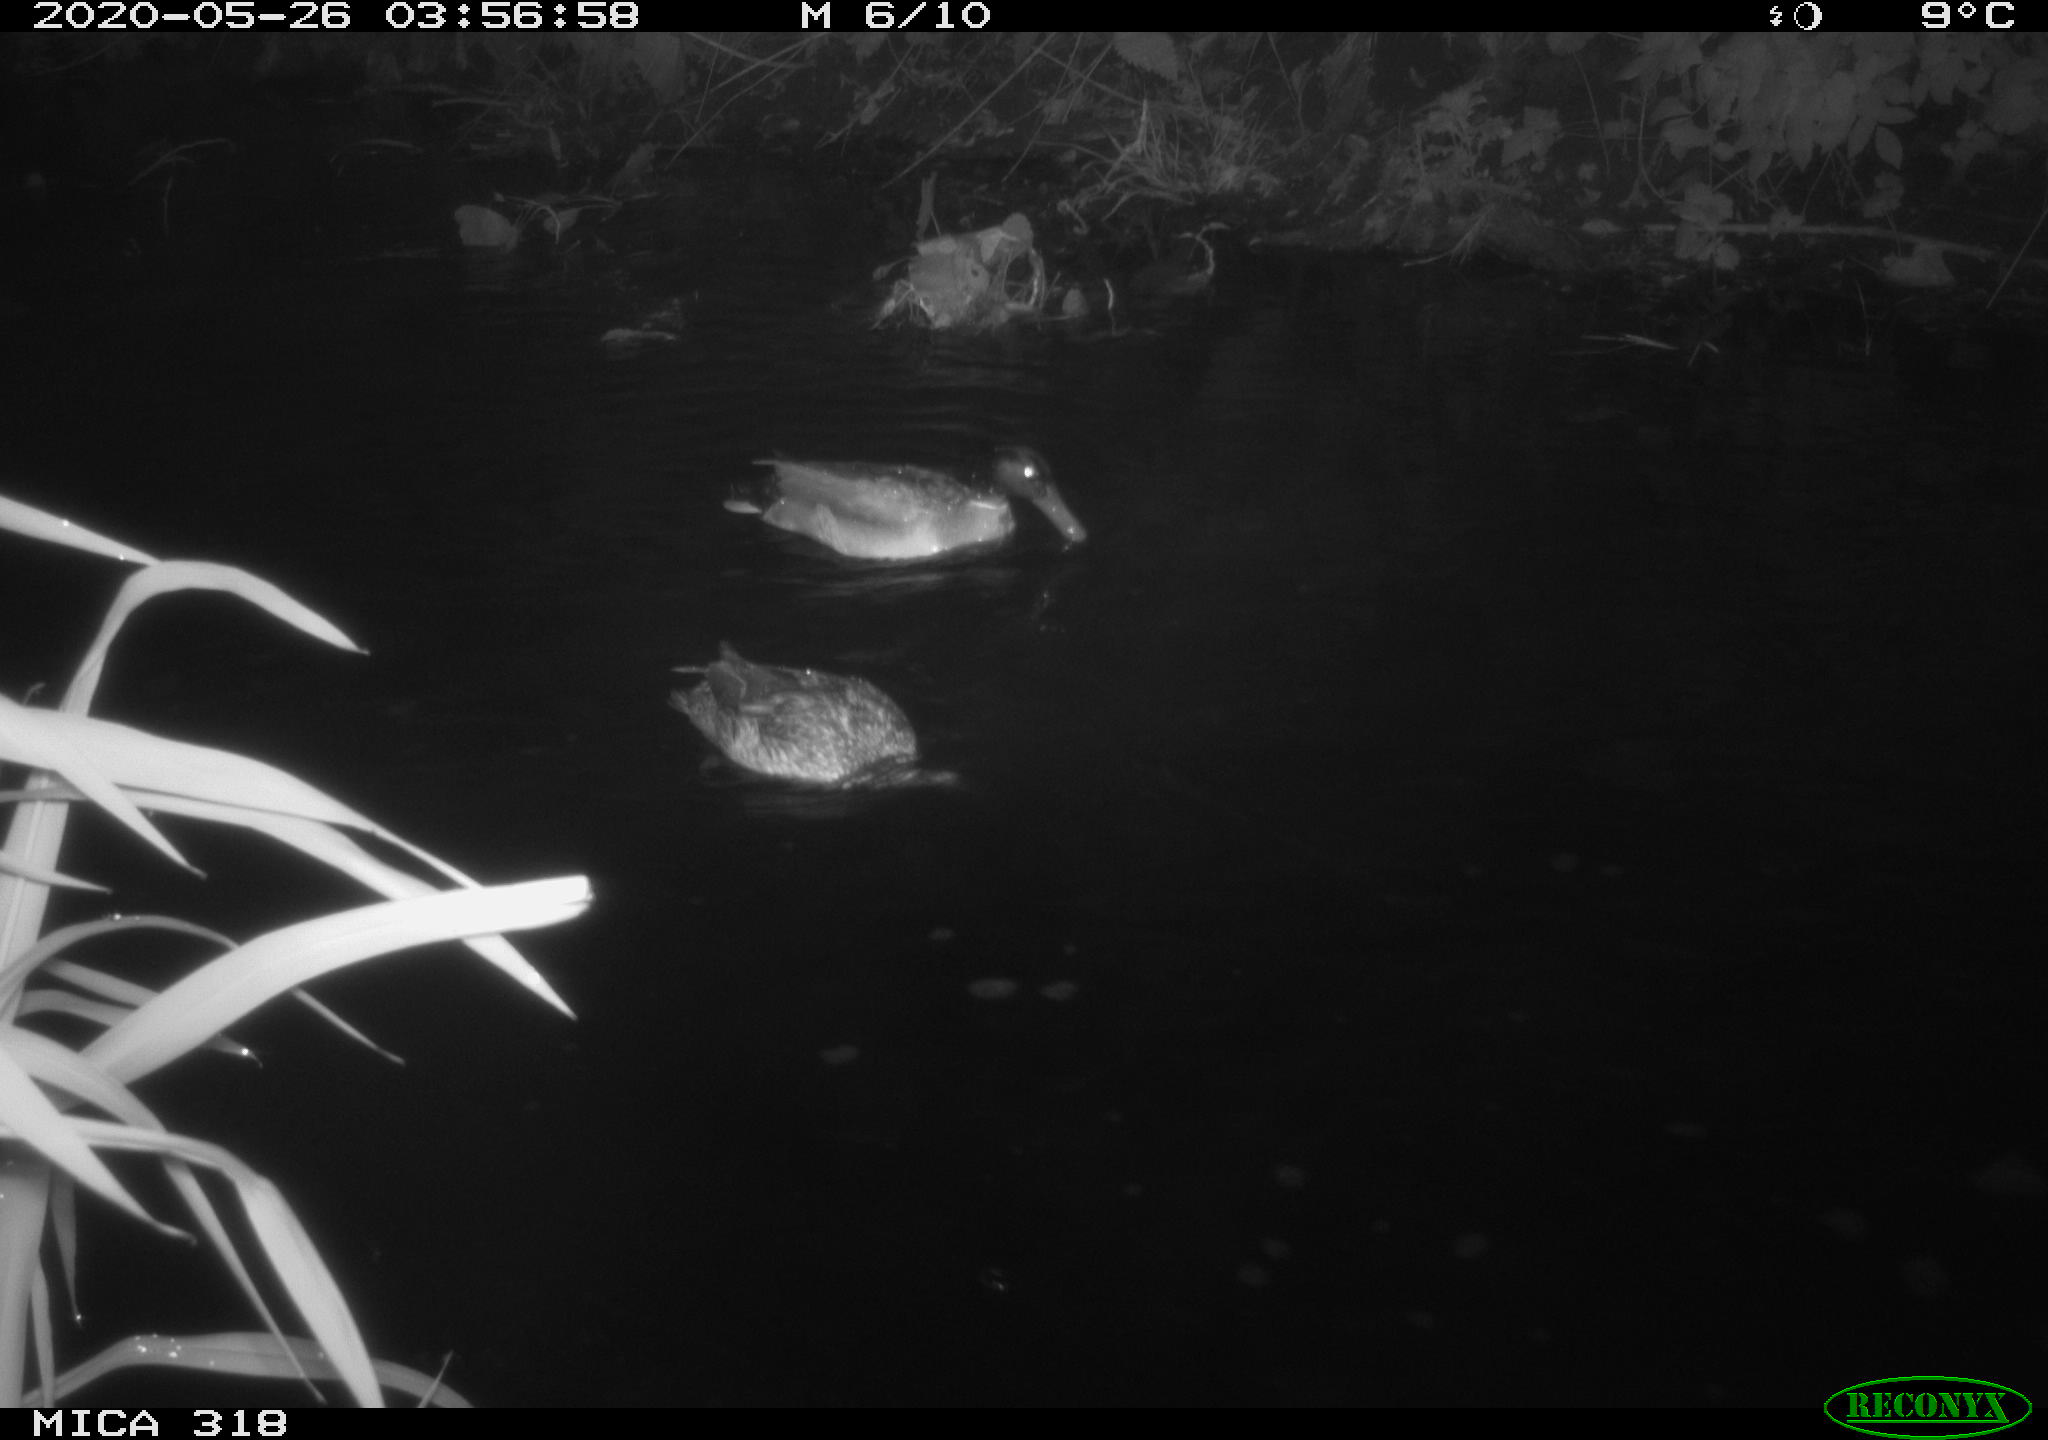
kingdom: Animalia
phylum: Chordata
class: Aves
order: Anseriformes
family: Anatidae
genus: Anas
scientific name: Anas platyrhynchos
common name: Mallard
